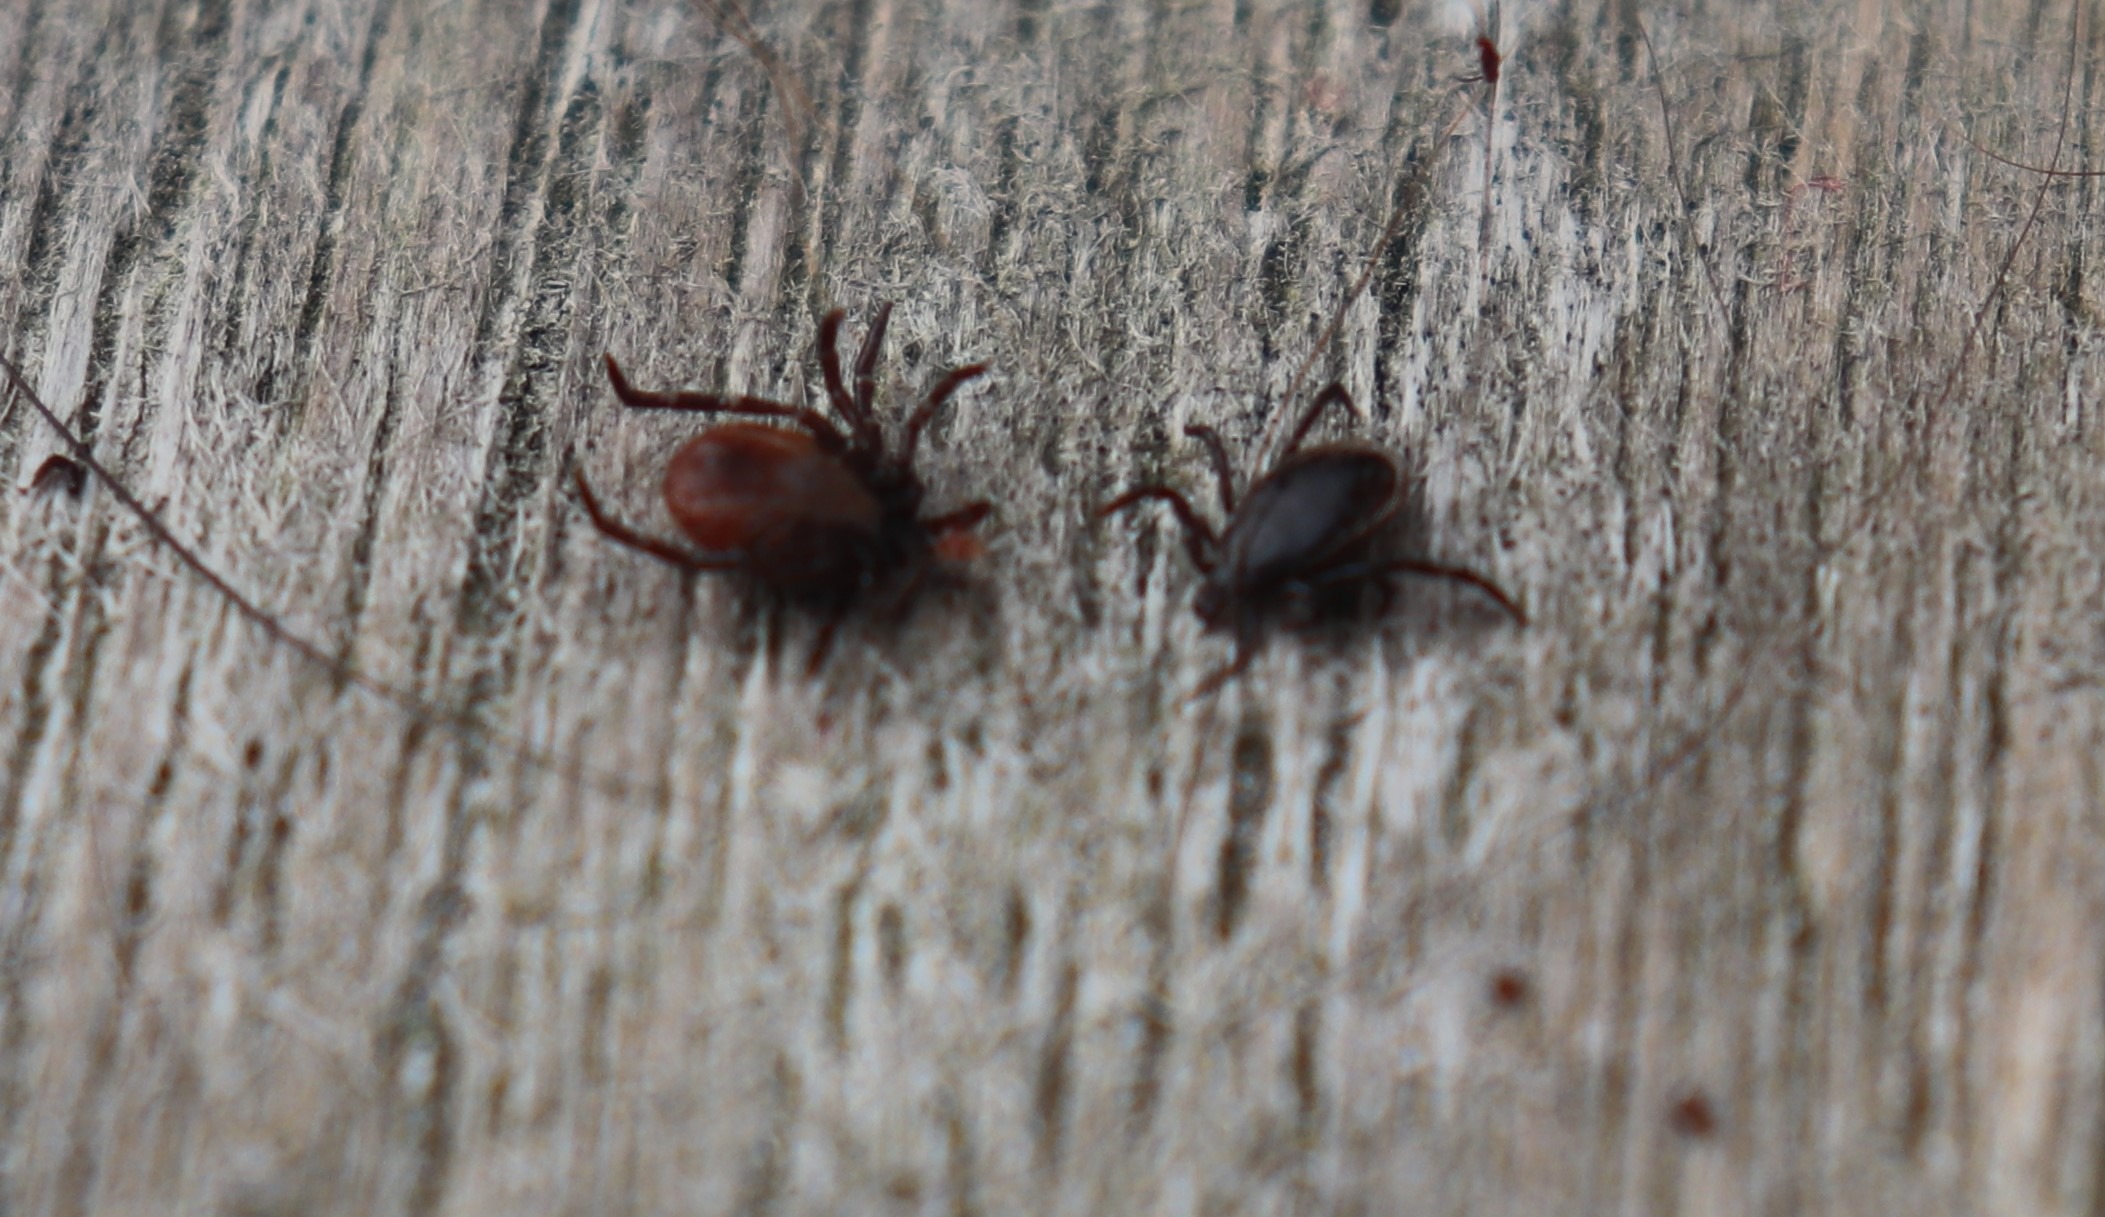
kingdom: Animalia
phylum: Arthropoda
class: Arachnida
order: Ixodida
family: Ixodidae
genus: Ixodes
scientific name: Ixodes ricinus
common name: Skovflåt
